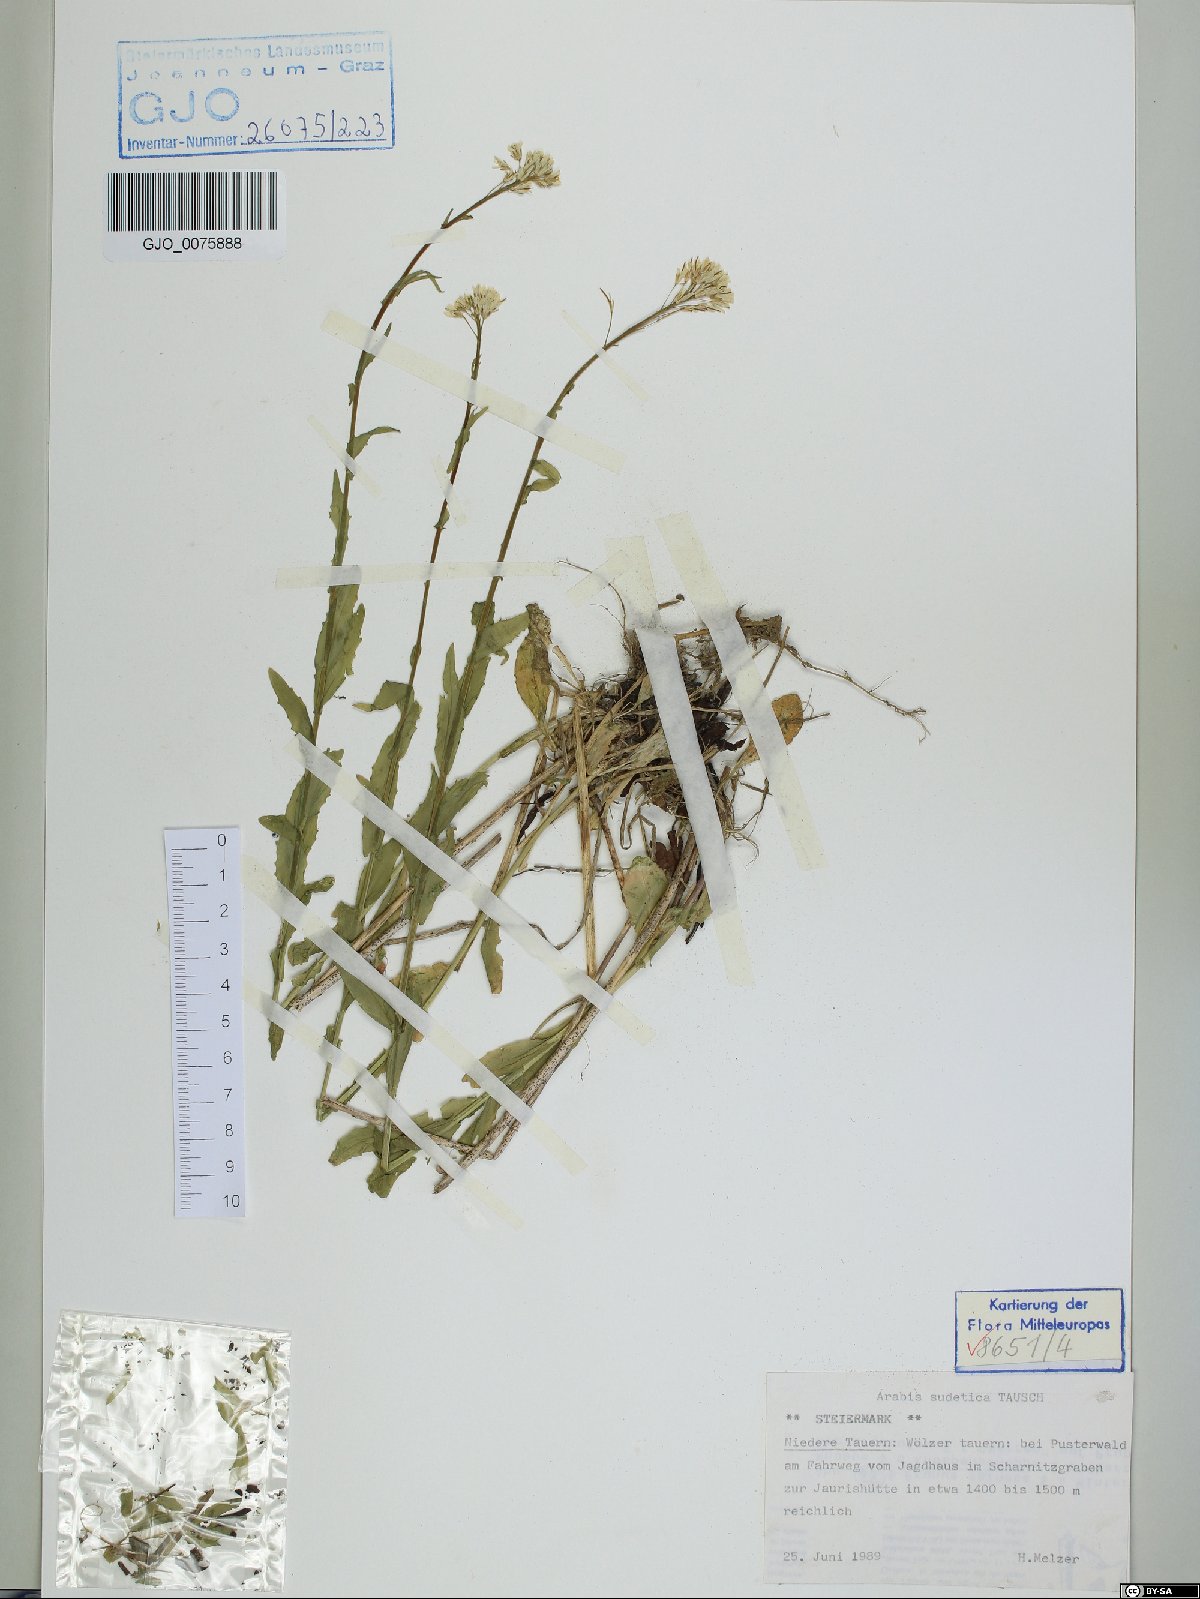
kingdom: Plantae
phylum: Tracheophyta
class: Magnoliopsida
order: Brassicales
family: Brassicaceae
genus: Arabis
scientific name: Arabis sudetica
